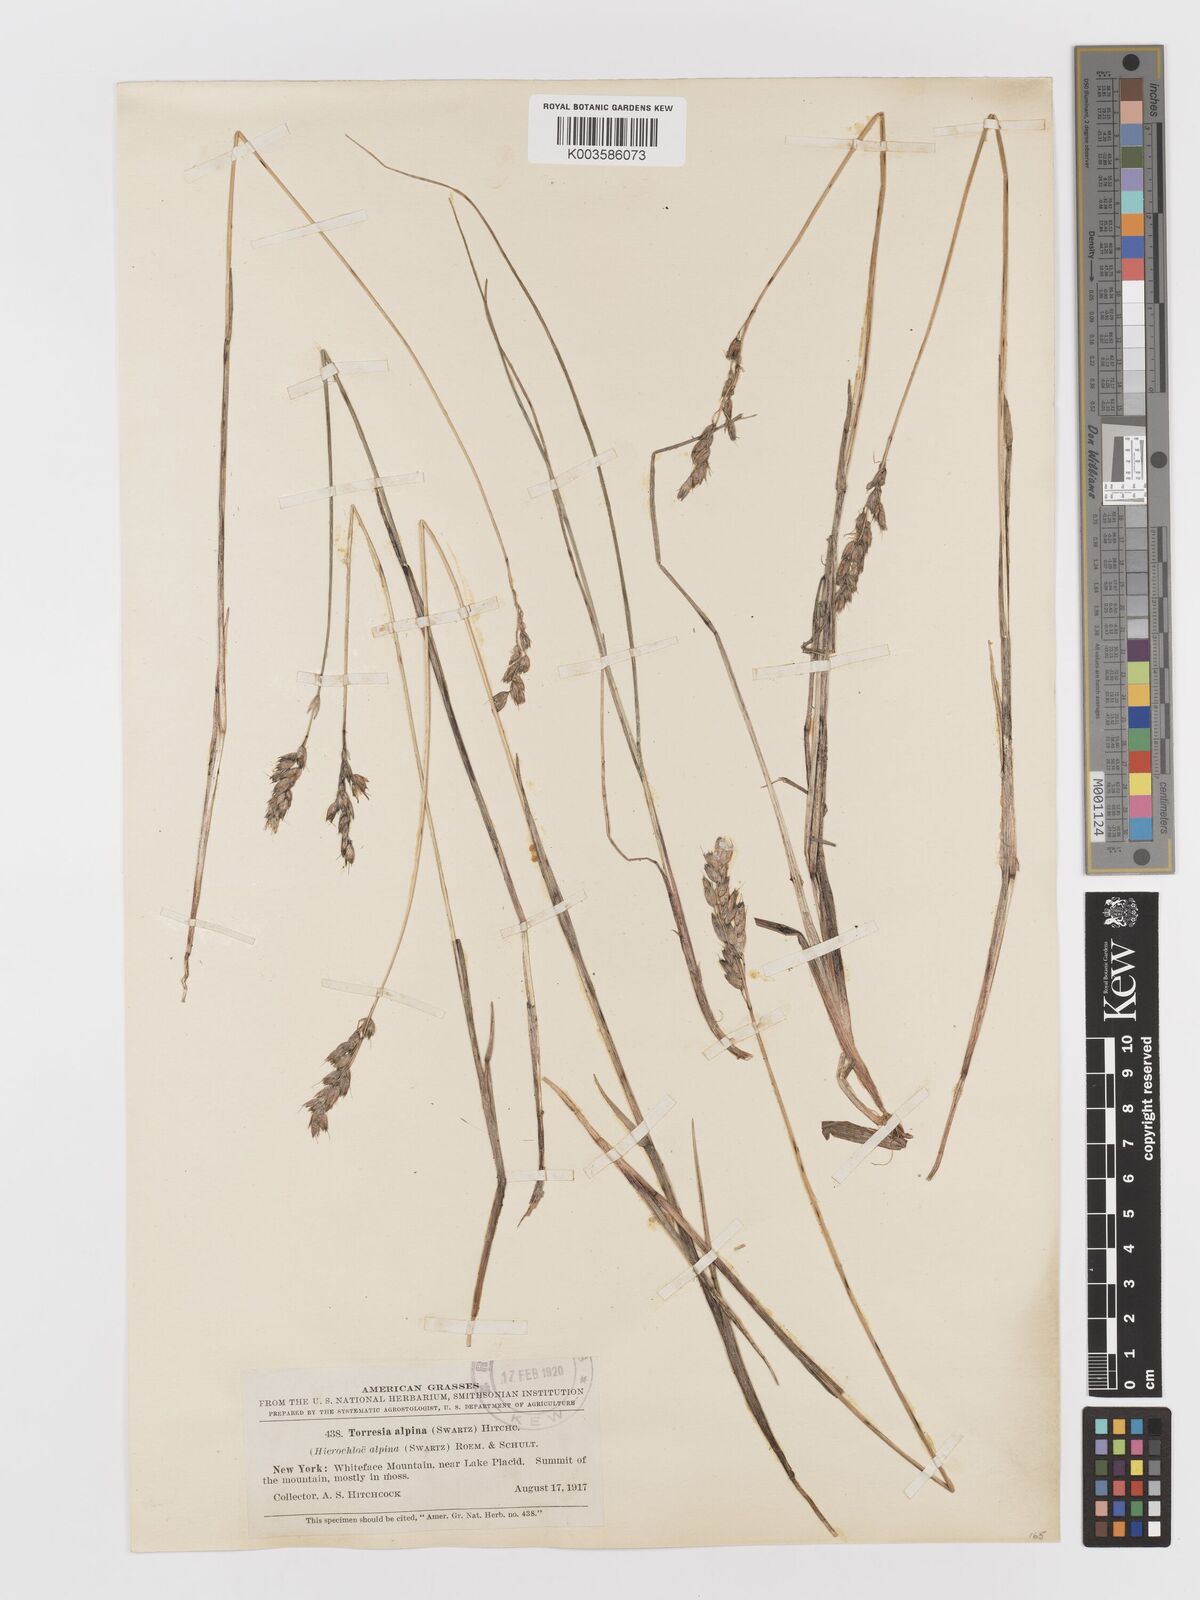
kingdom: Plantae
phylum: Tracheophyta
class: Liliopsida
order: Poales
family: Poaceae
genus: Anthoxanthum
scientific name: Anthoxanthum monticola
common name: Alpine sweetgrass
